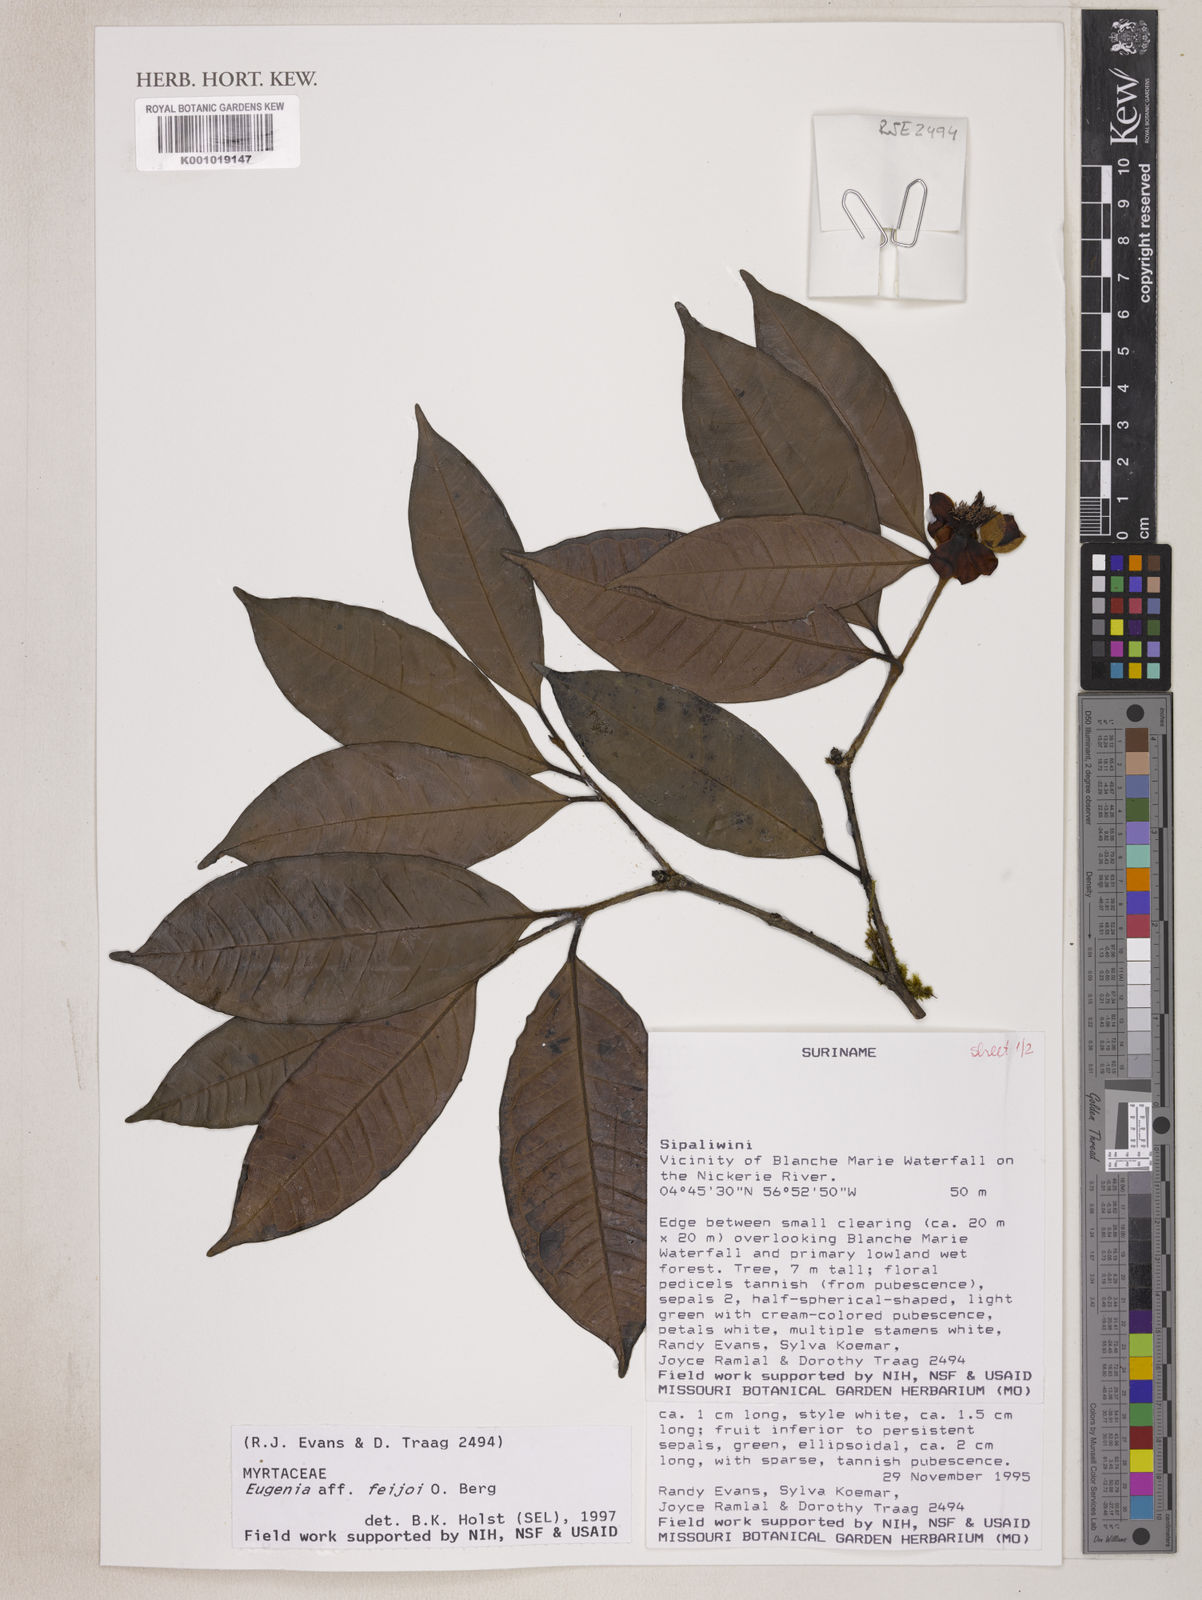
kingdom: Plantae
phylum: Tracheophyta
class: Magnoliopsida
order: Myrtales
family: Myrtaceae
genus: Eugenia
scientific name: Eugenia moschata
